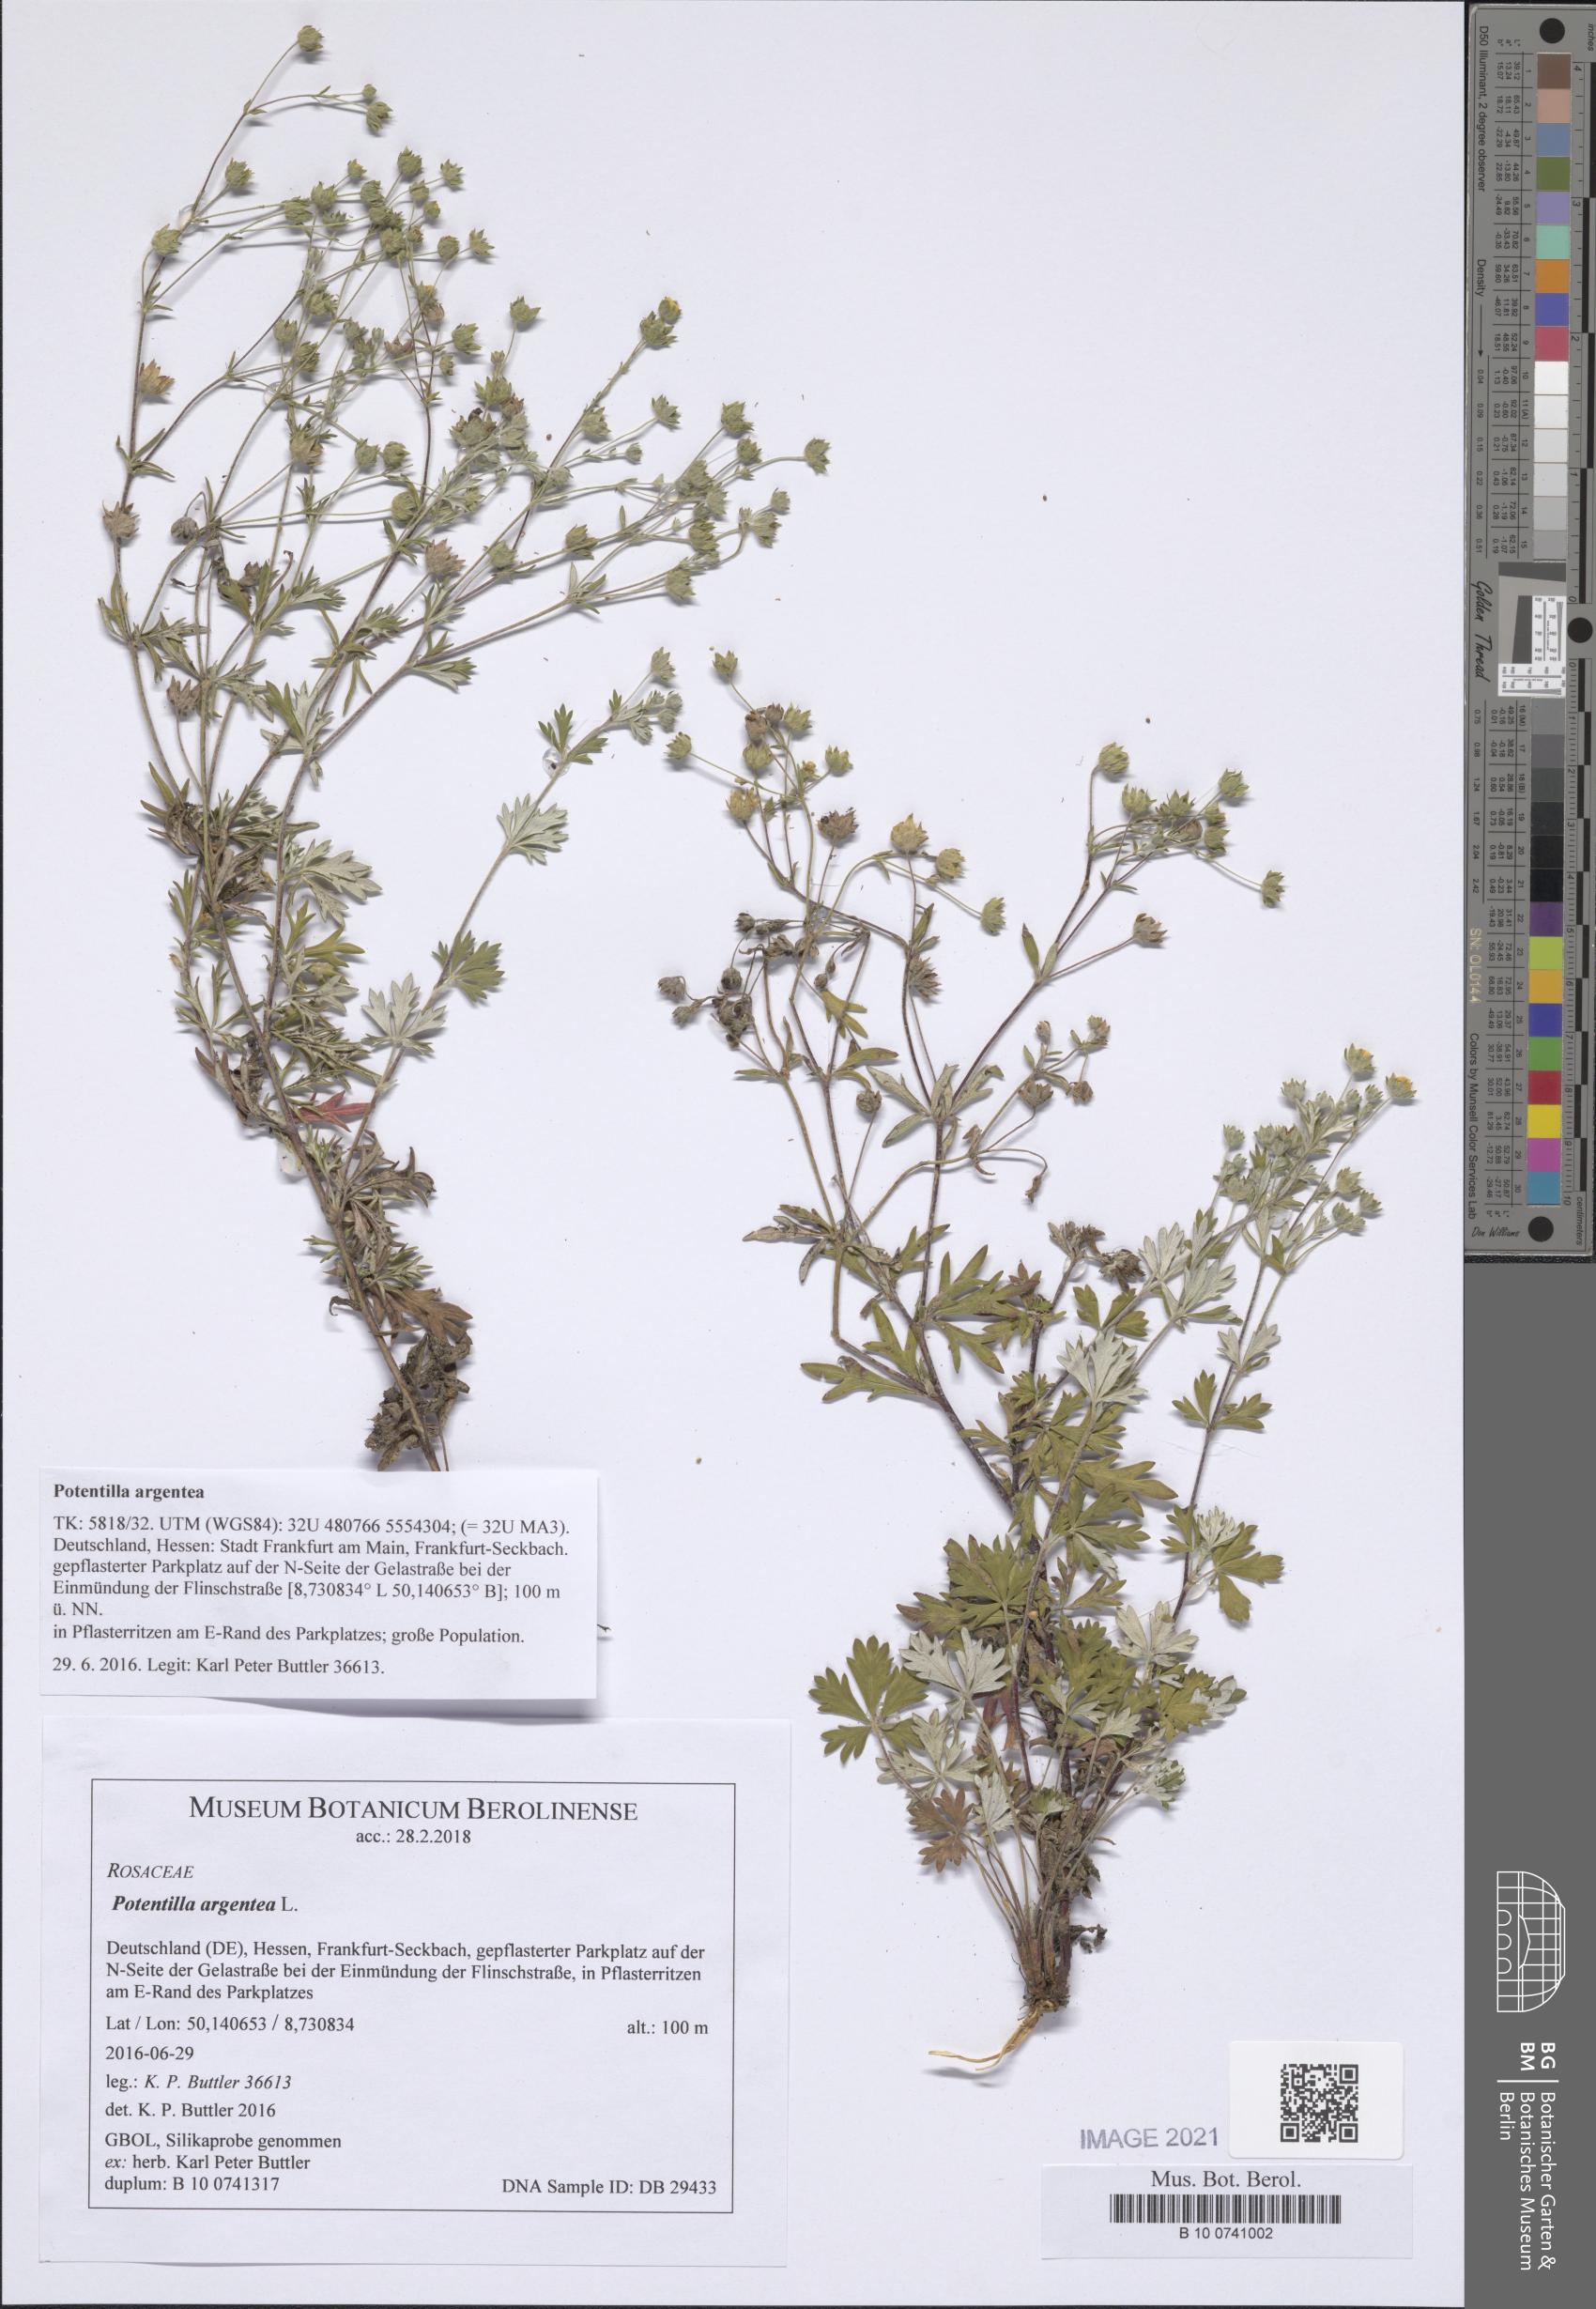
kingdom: Plantae
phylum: Tracheophyta
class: Magnoliopsida
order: Rosales
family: Rosaceae
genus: Potentilla
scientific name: Potentilla argentea
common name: Hoary cinquefoil
